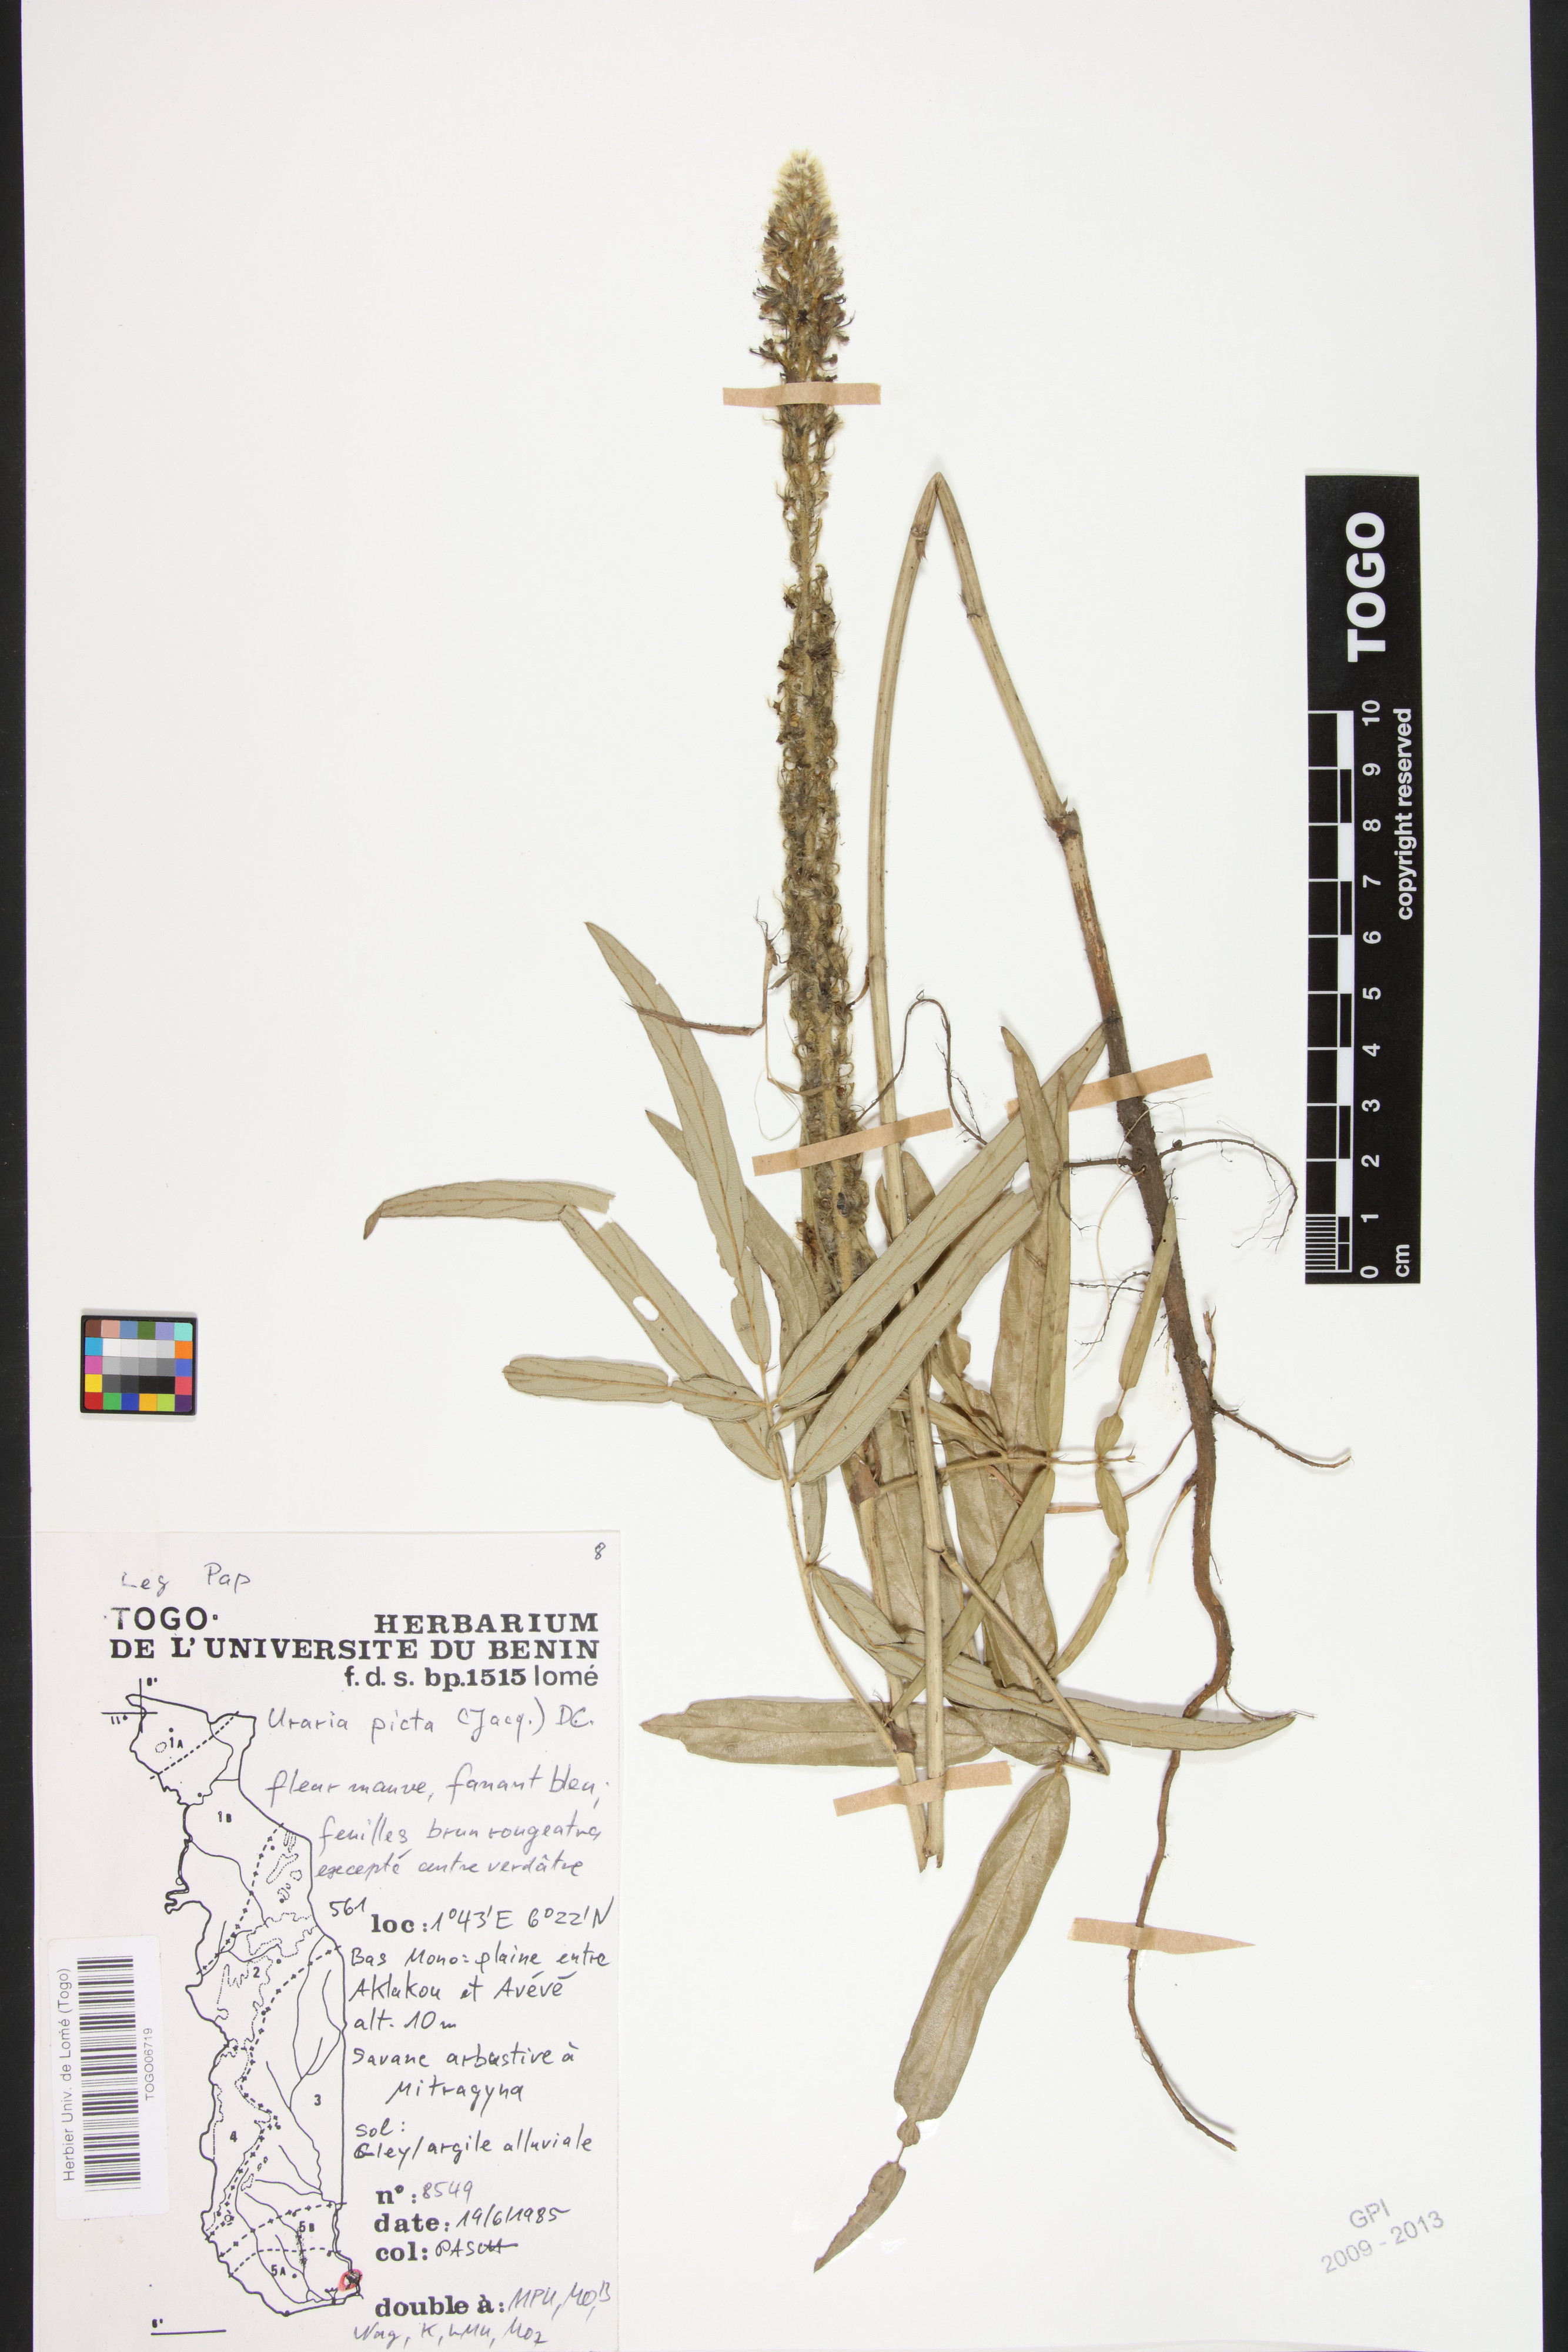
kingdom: Plantae
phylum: Tracheophyta
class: Magnoliopsida
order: Fabales
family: Fabaceae
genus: Uraria
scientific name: Uraria picta
